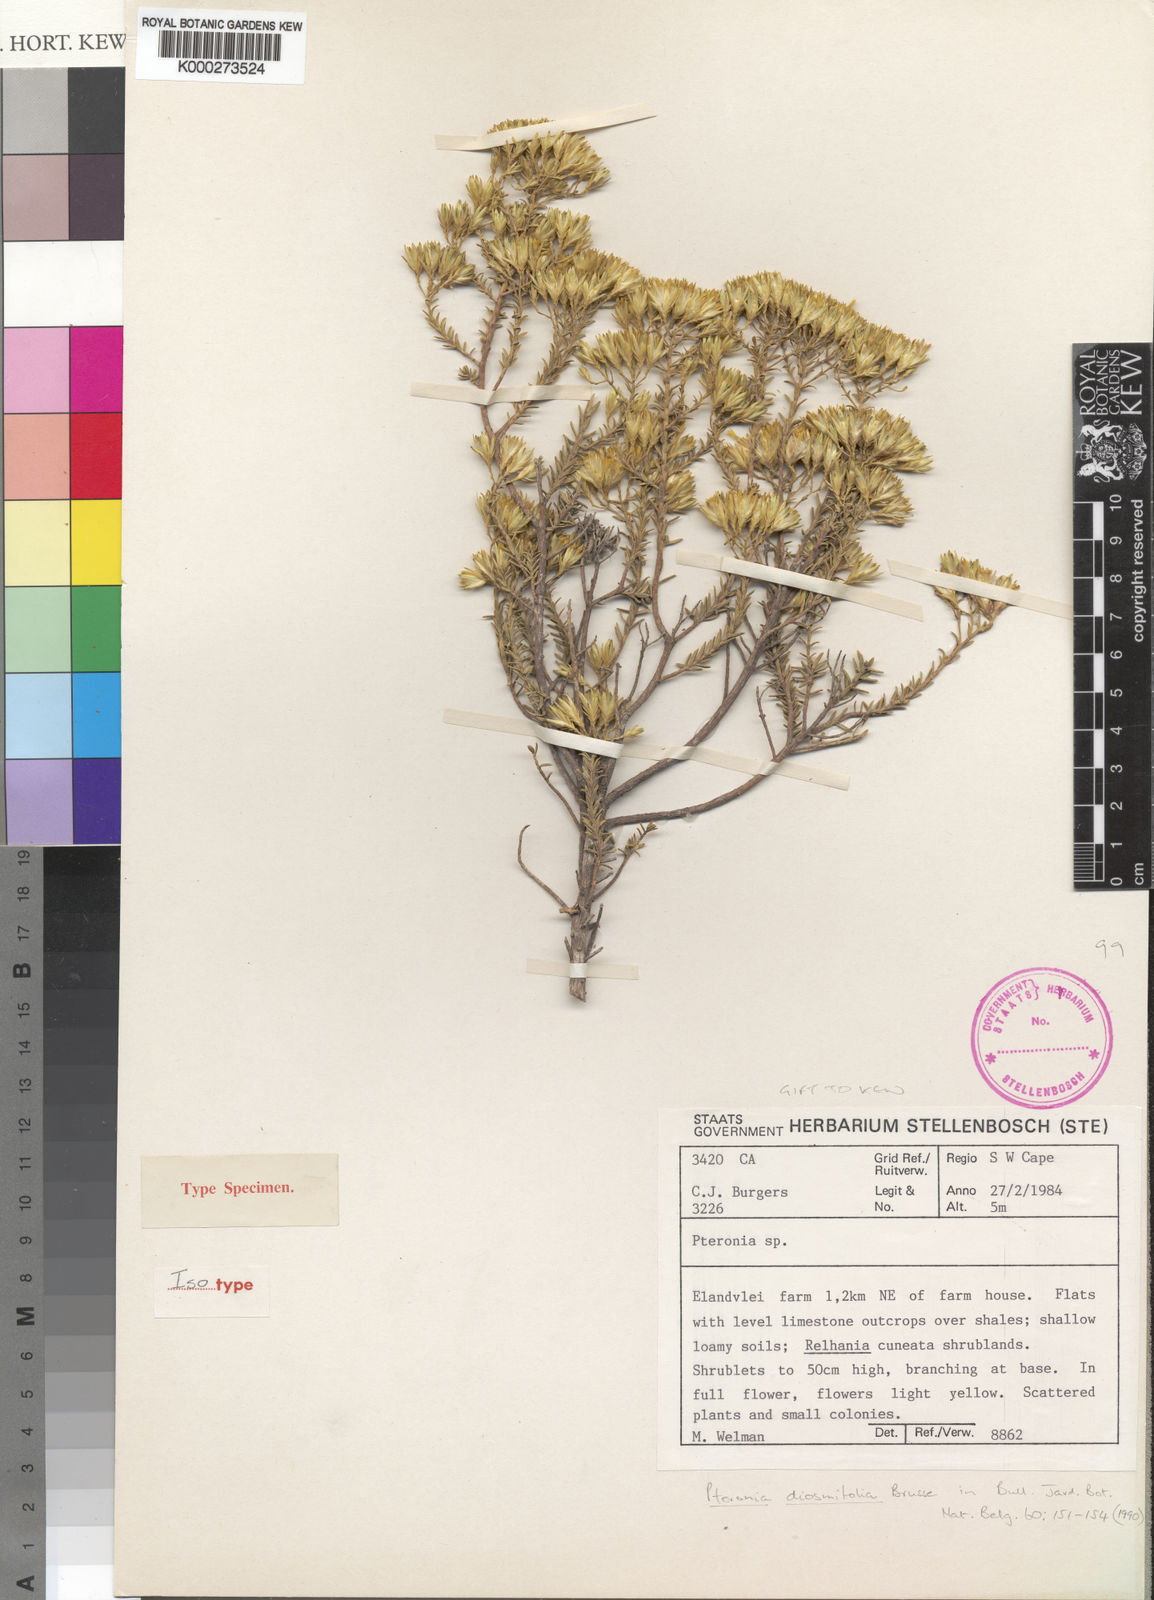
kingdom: Plantae
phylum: Tracheophyta
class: Magnoliopsida
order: Asterales
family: Asteraceae
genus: Pteronia
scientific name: Pteronia diosmifolia
